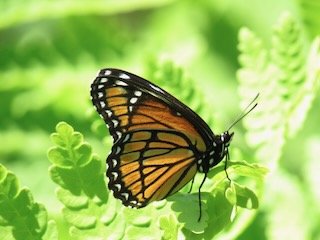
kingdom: Animalia
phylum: Arthropoda
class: Insecta
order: Lepidoptera
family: Nymphalidae
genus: Limenitis
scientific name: Limenitis archippus
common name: Viceroy
